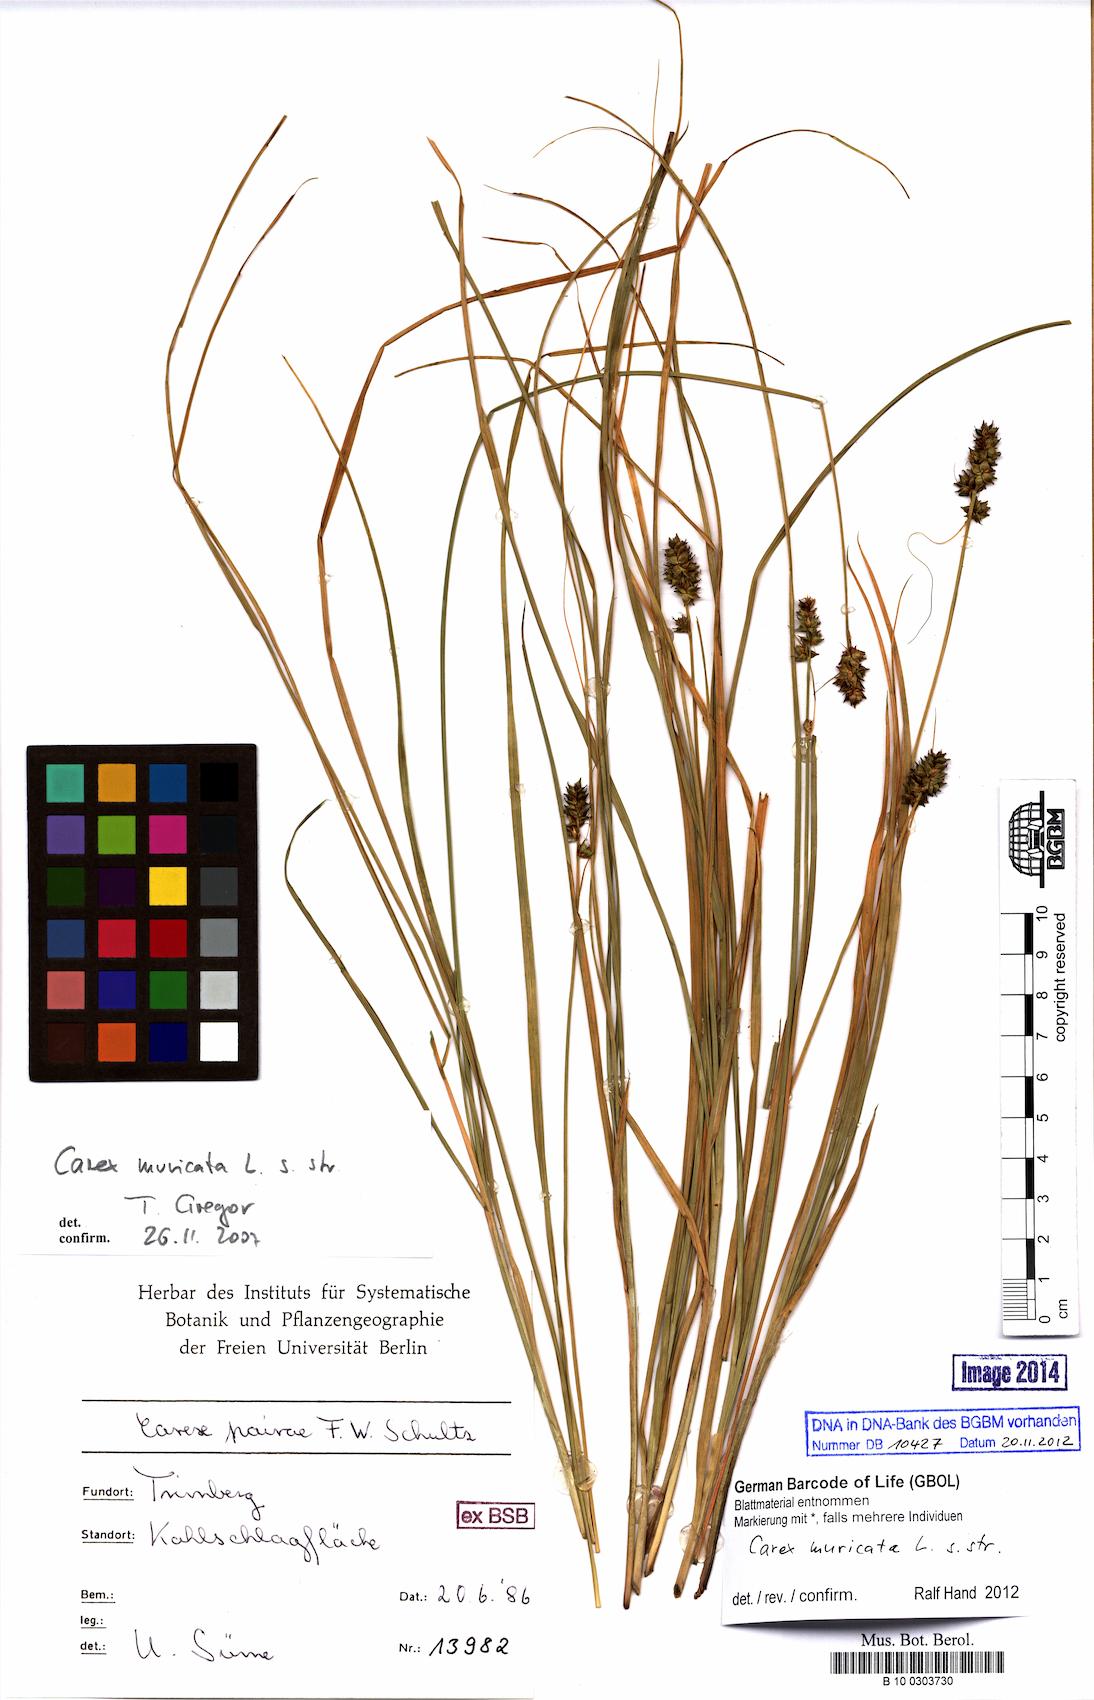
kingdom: Plantae
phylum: Tracheophyta
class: Liliopsida
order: Poales
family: Cyperaceae
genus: Carex
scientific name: Carex muricata
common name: Rough sedge
